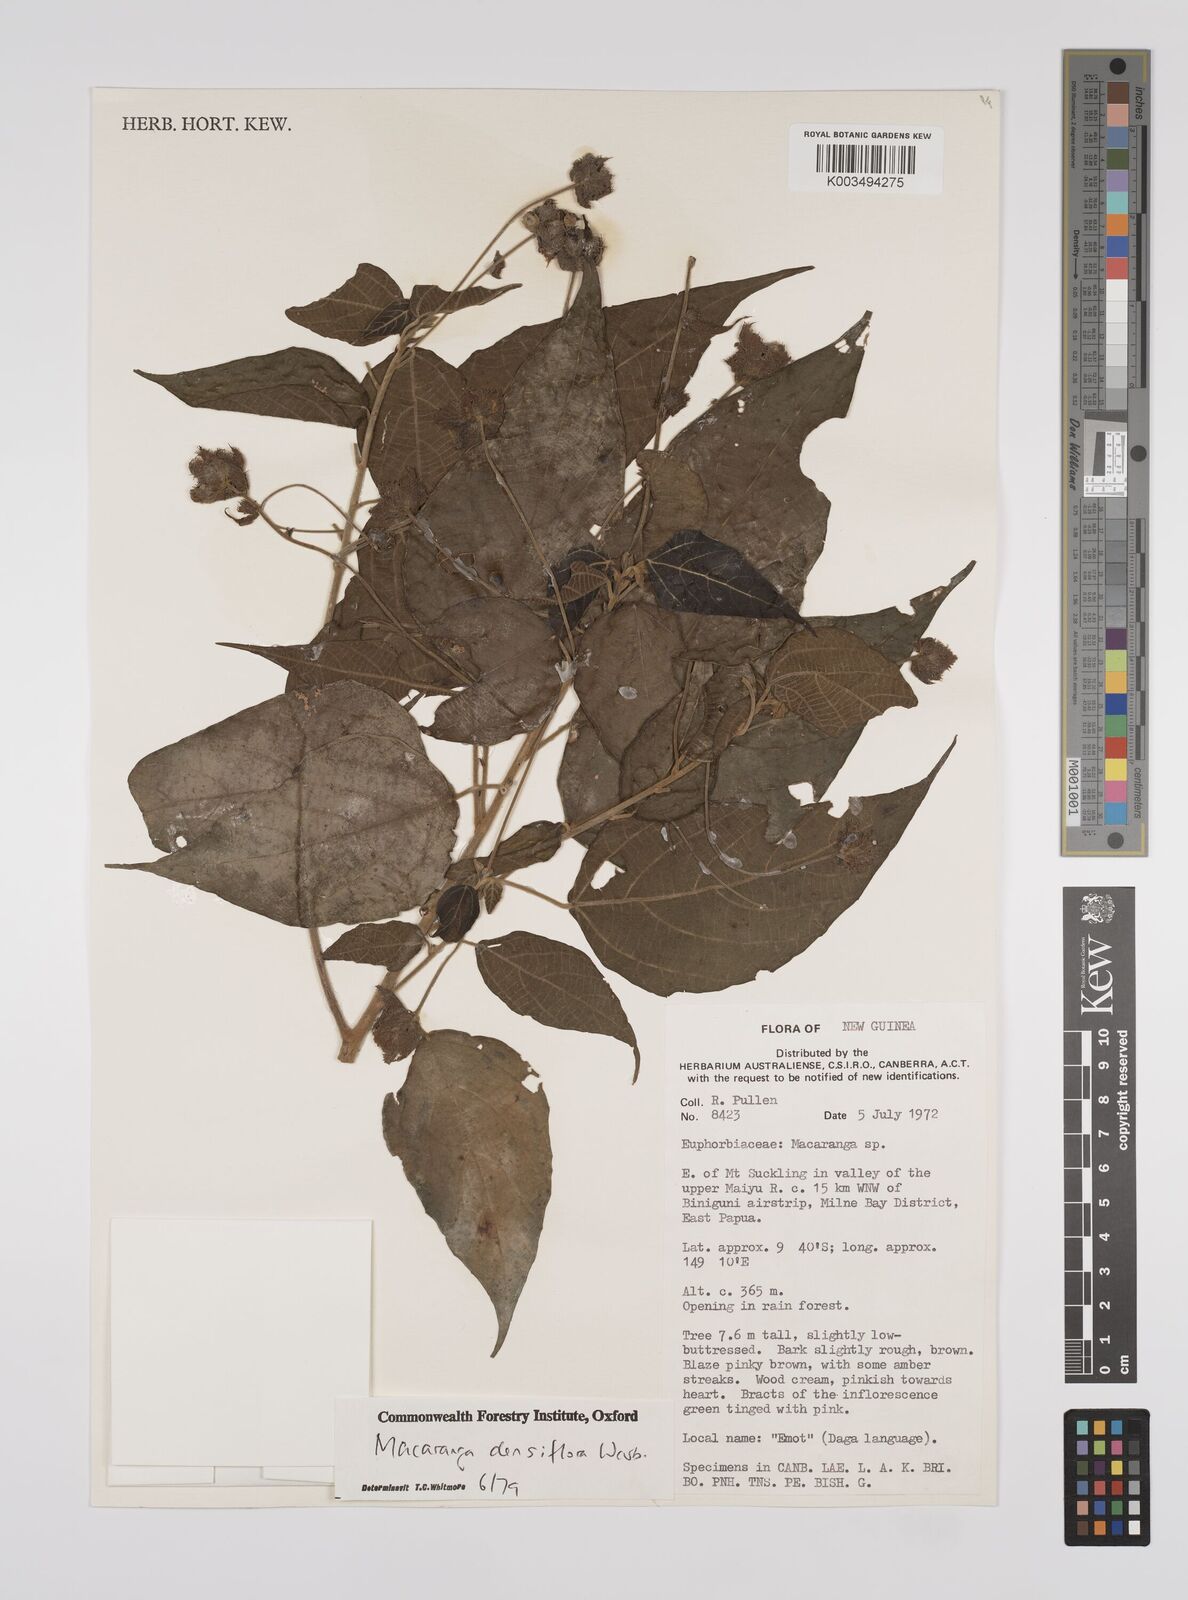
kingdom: Plantae
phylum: Tracheophyta
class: Magnoliopsida
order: Malpighiales
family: Euphorbiaceae
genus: Macaranga
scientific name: Macaranga densiflora
